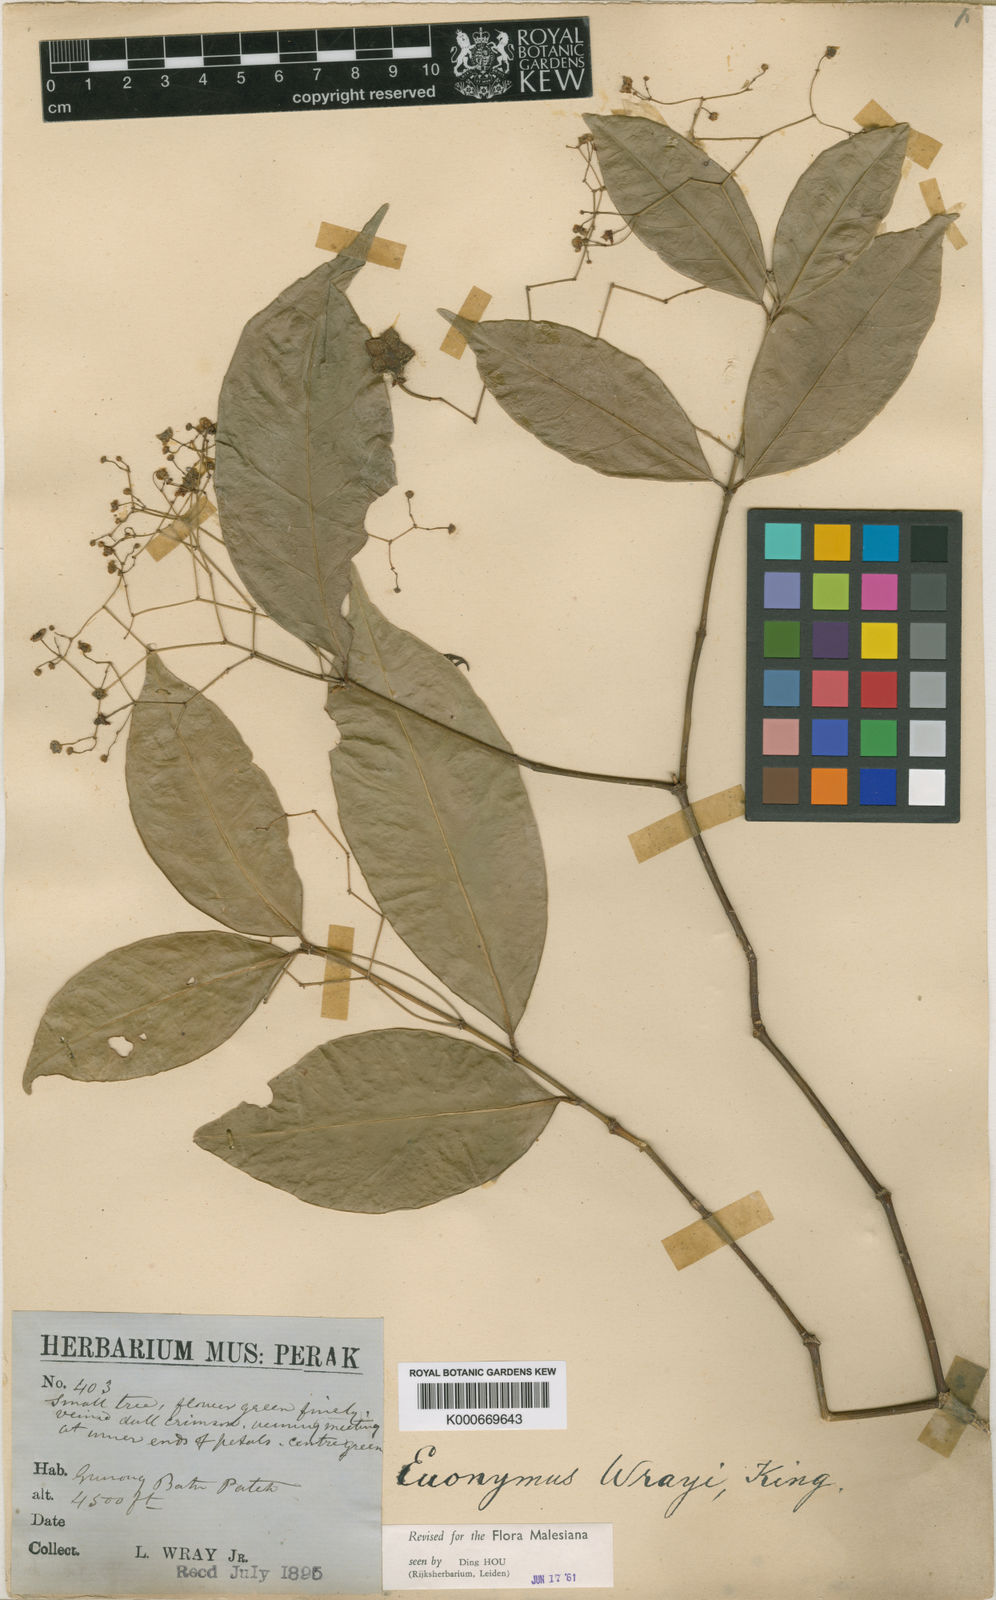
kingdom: Plantae
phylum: Tracheophyta
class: Magnoliopsida
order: Celastrales
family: Celastraceae
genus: Euonymus
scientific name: Euonymus wrayi
